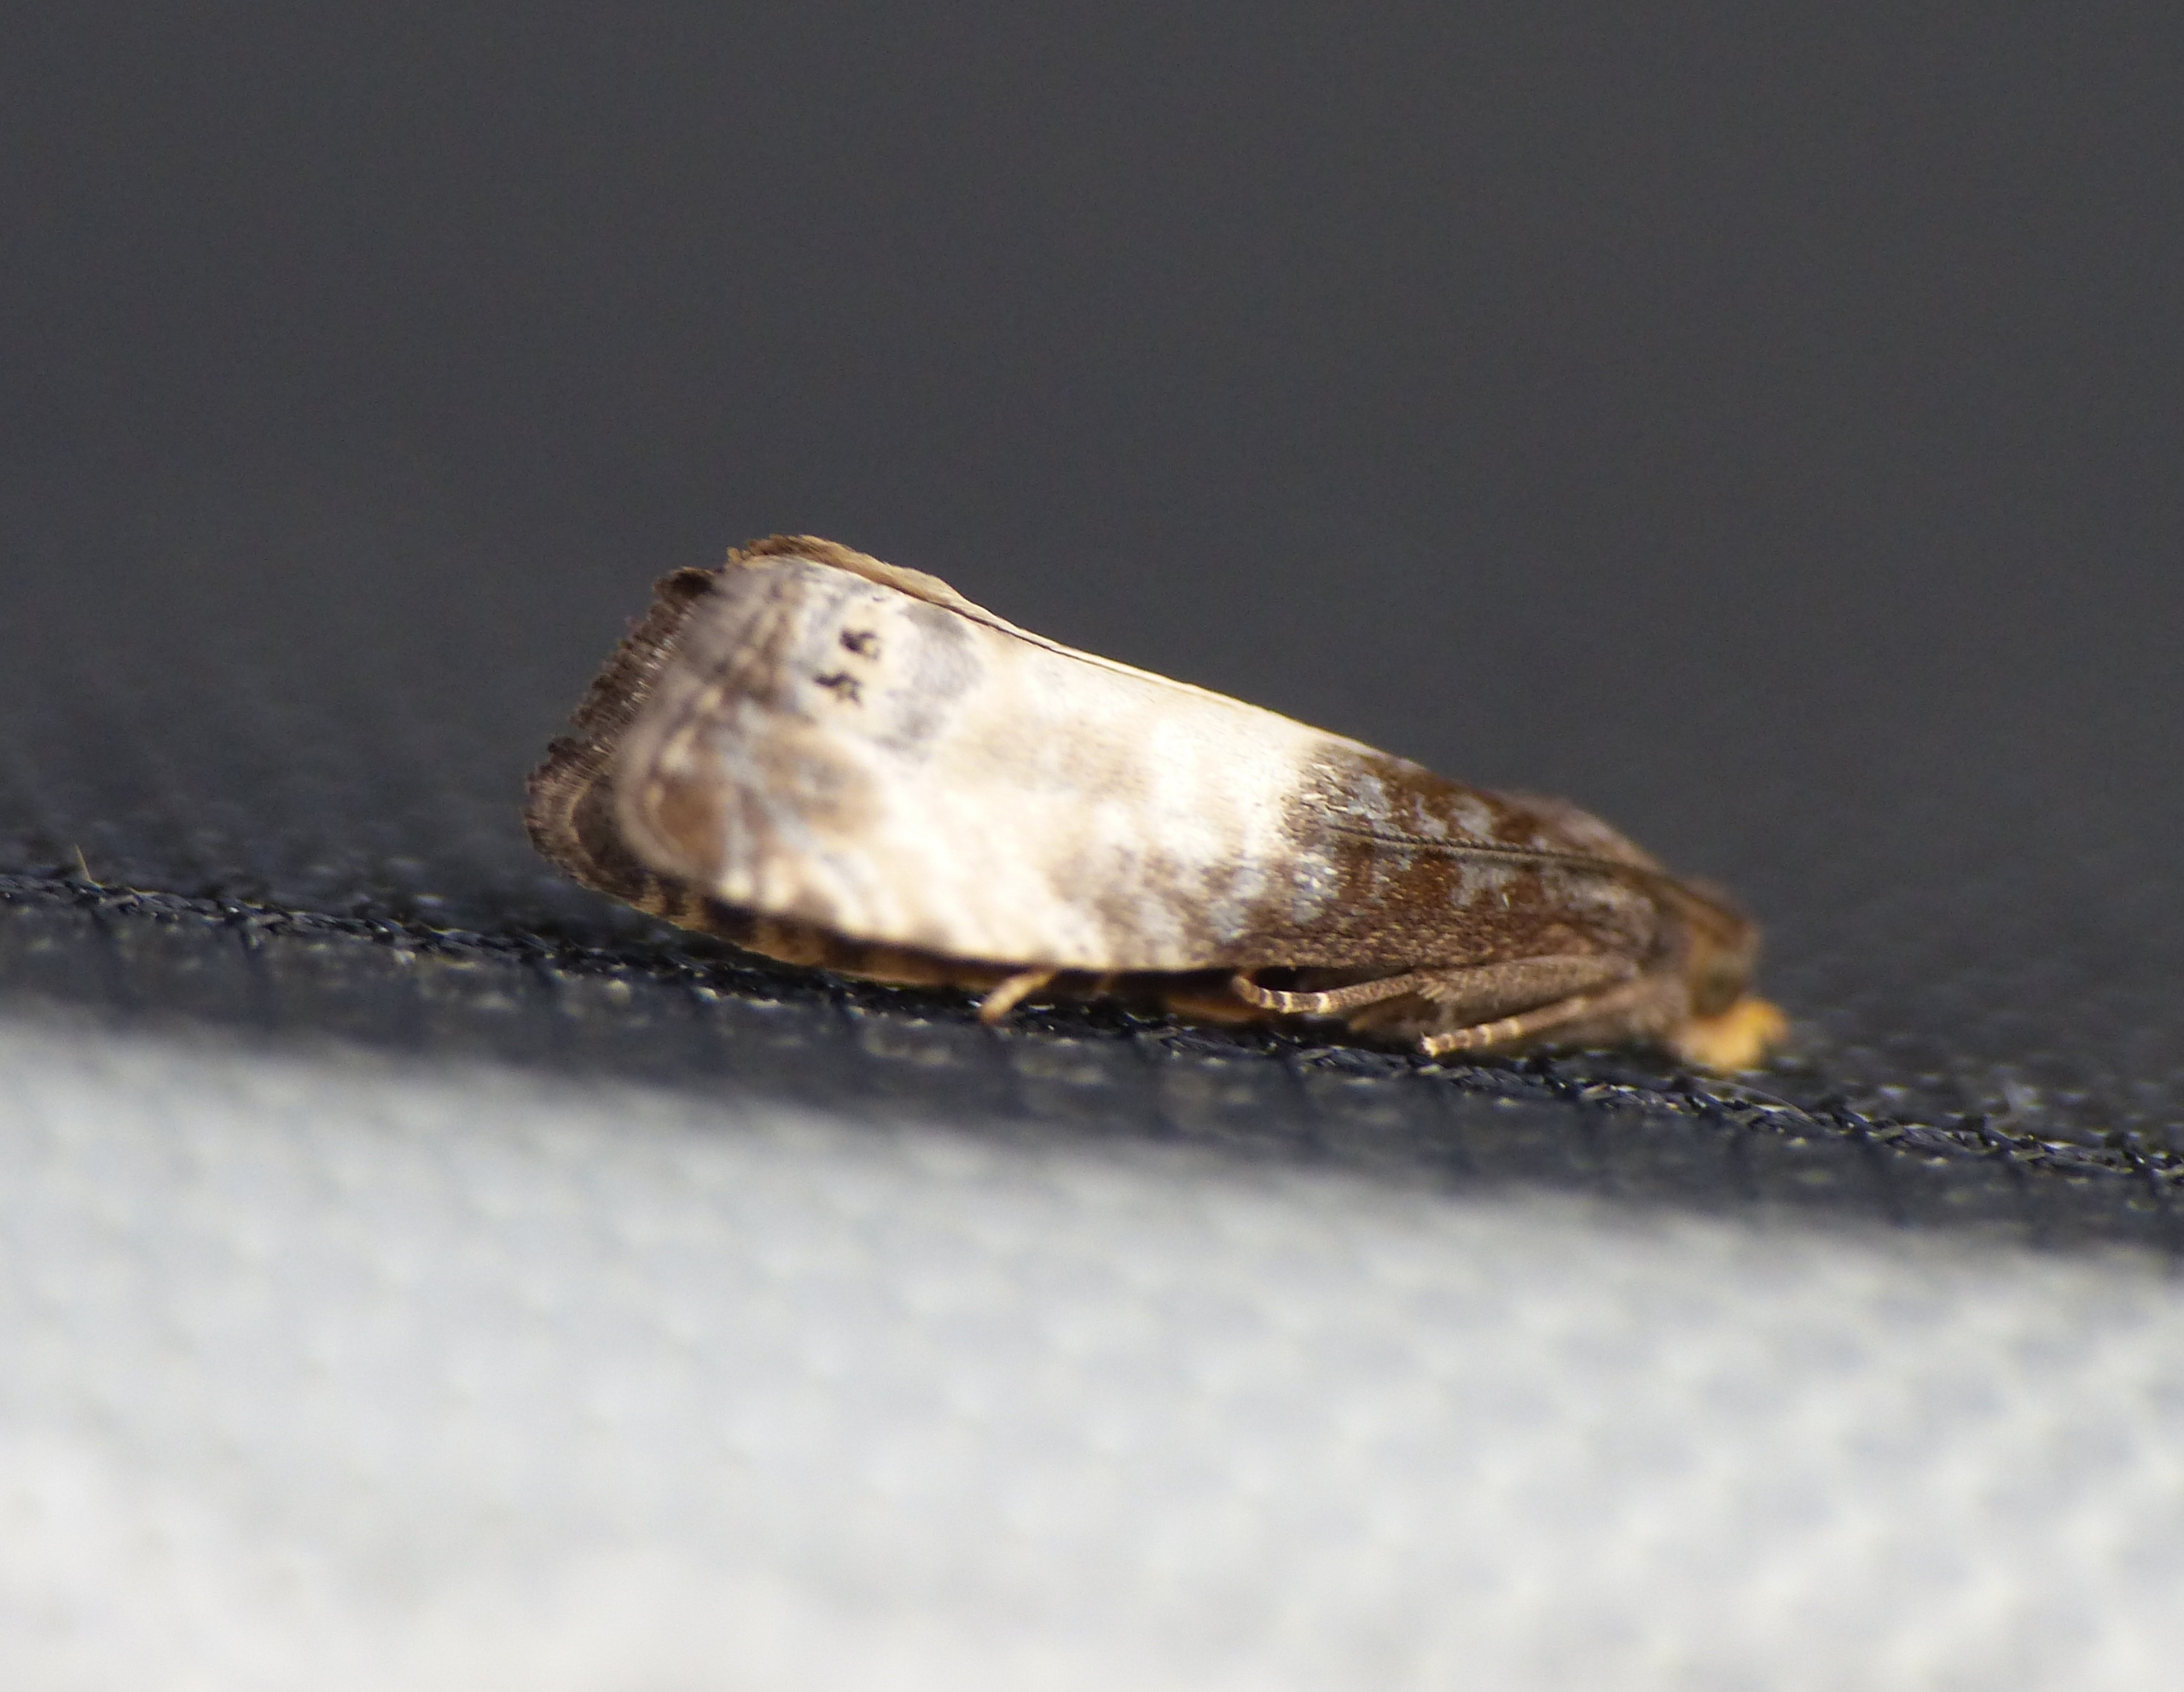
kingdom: Animalia
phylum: Arthropoda
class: Insecta
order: Lepidoptera
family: Tortricidae
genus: Notocelia
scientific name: Notocelia cynosbatella
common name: Stor rosenvikler
